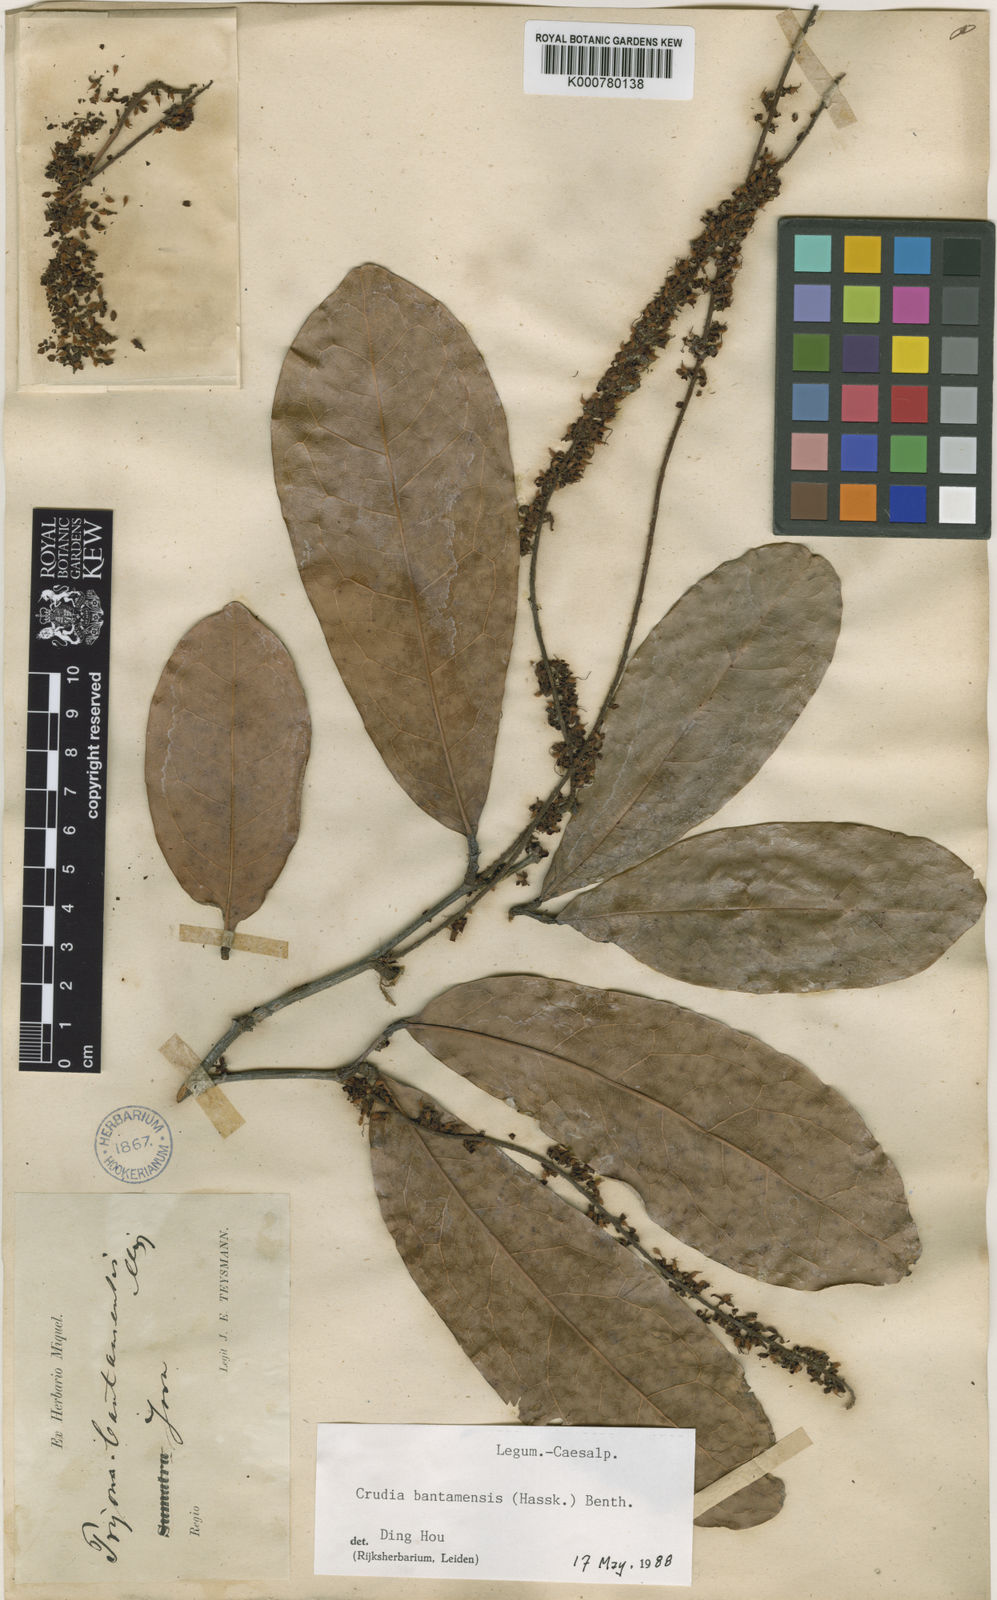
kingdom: Plantae
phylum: Tracheophyta
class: Magnoliopsida
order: Fabales
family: Fabaceae
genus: Crudia
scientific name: Crudia bantamensis
